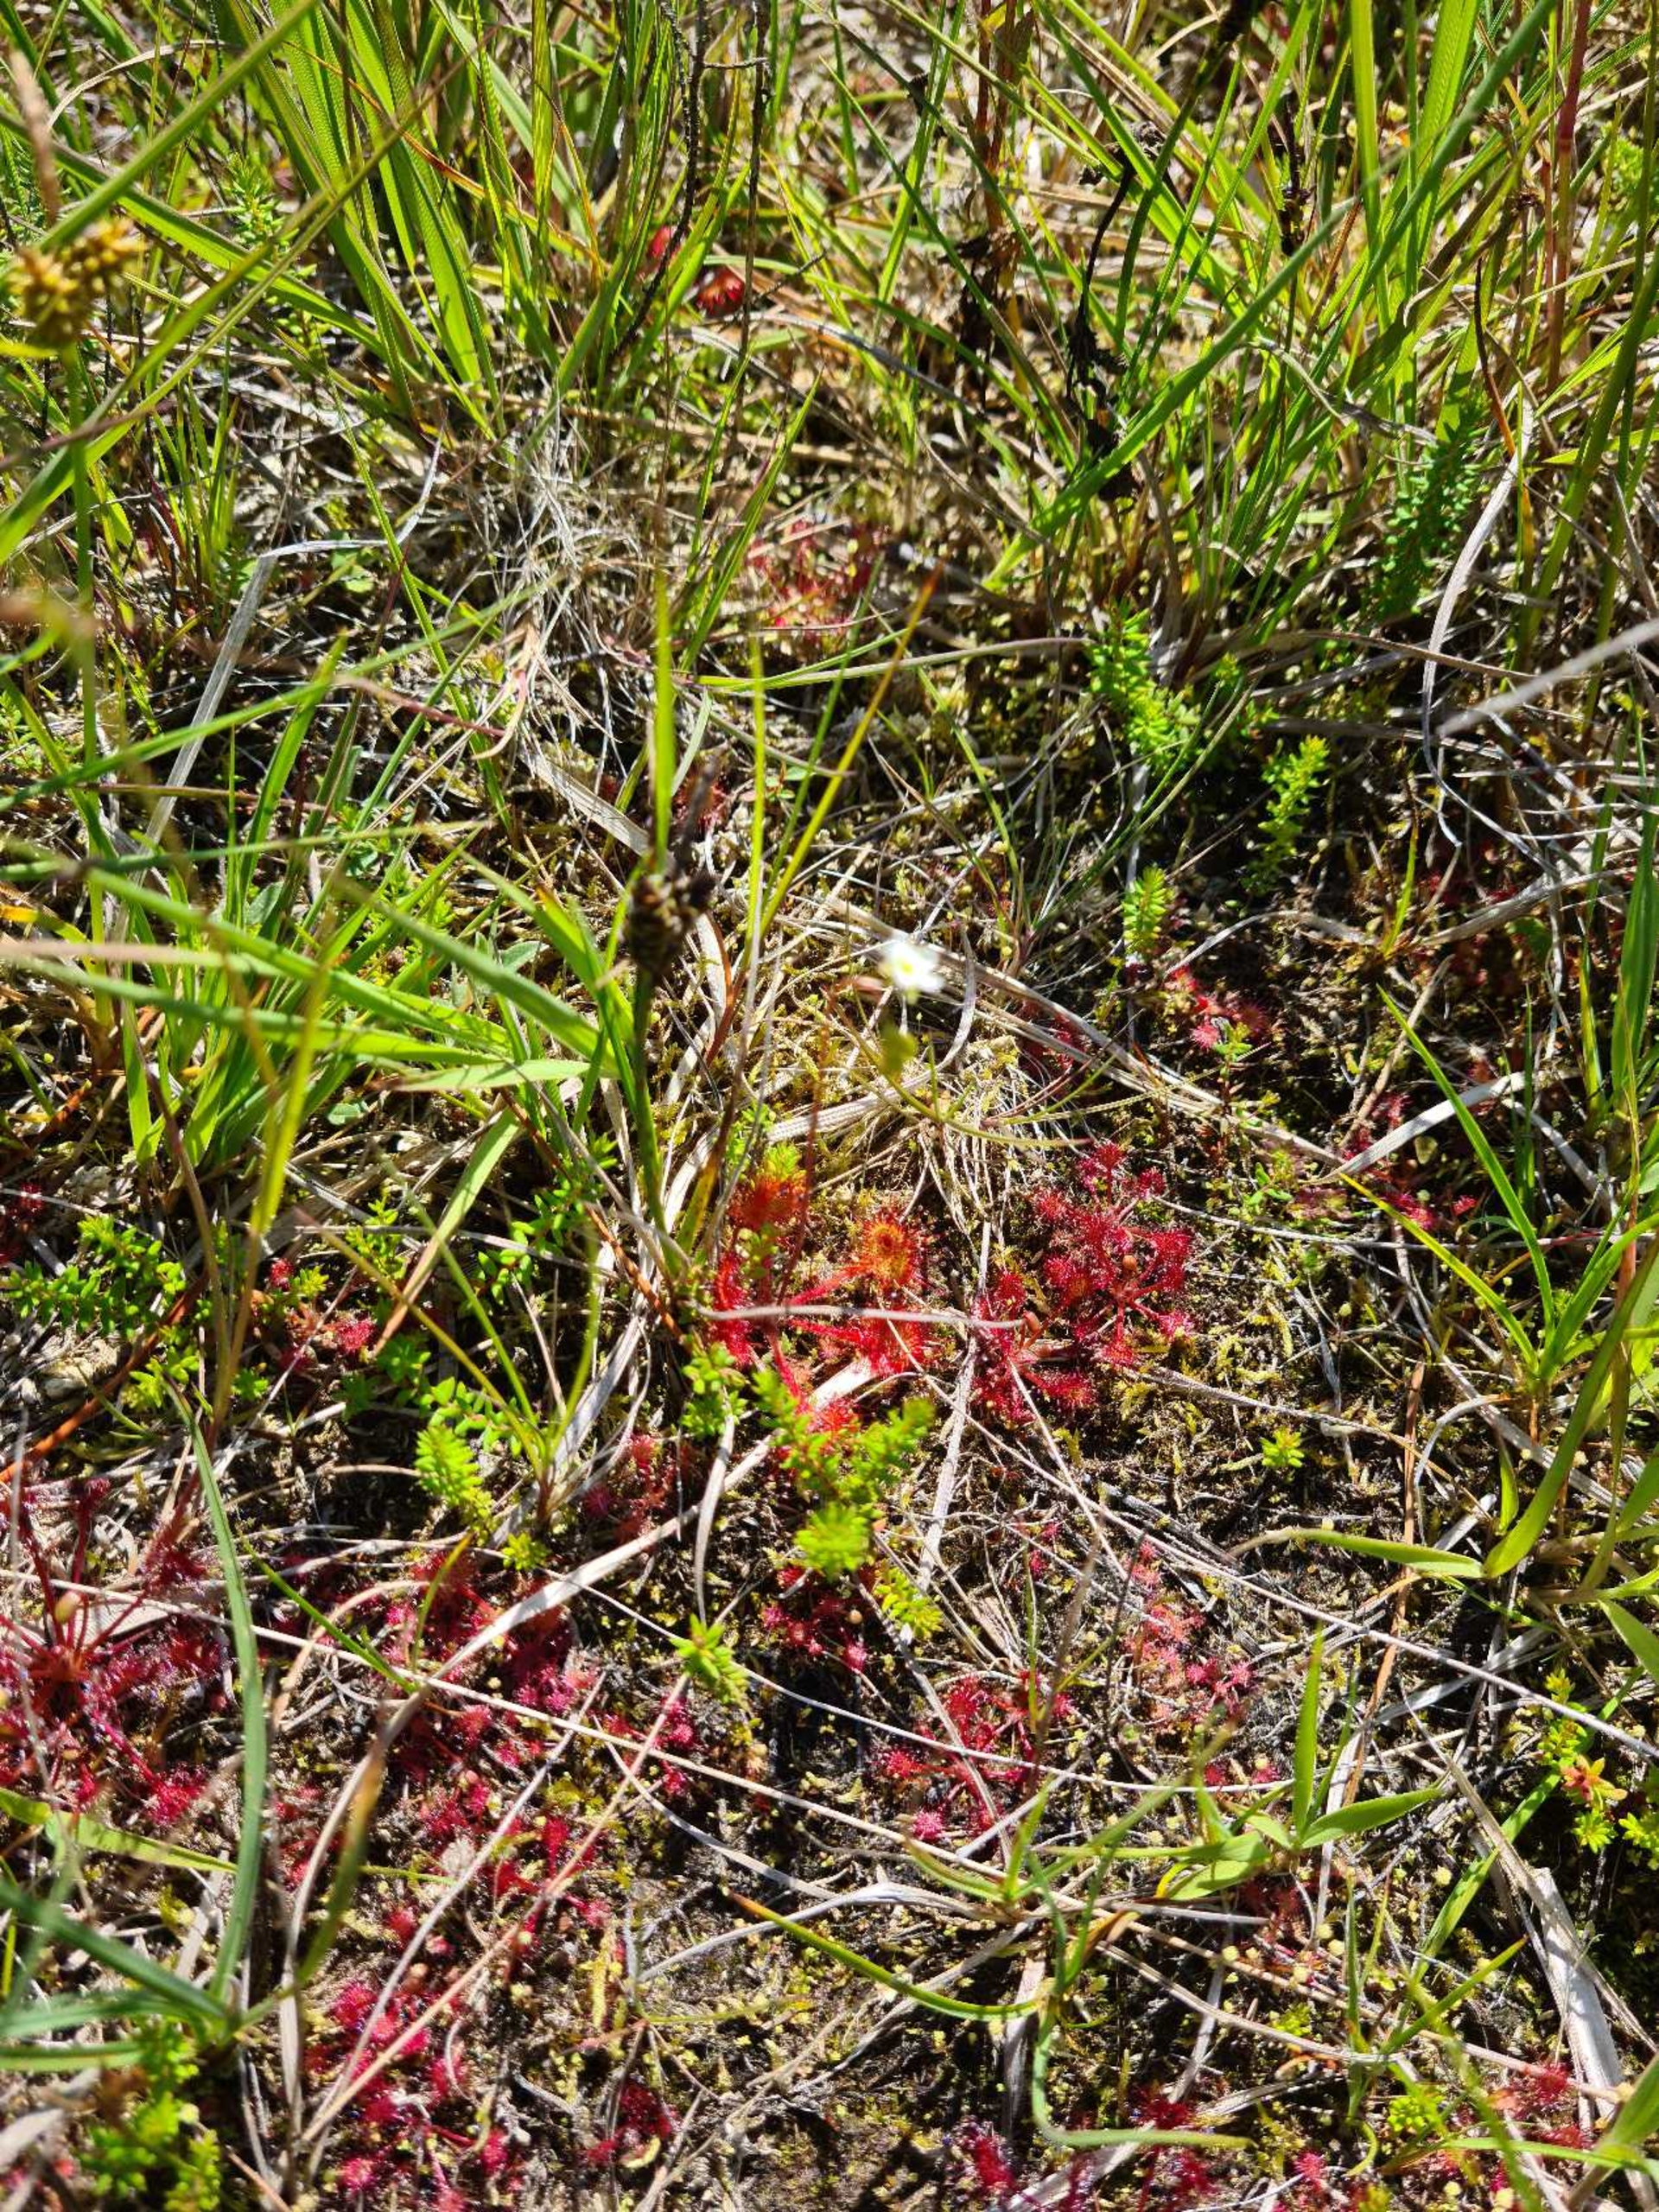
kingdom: Plantae
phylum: Tracheophyta
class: Magnoliopsida
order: Caryophyllales
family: Droseraceae
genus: Drosera
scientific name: Drosera rotundifolia
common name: Rundbladet soldug
